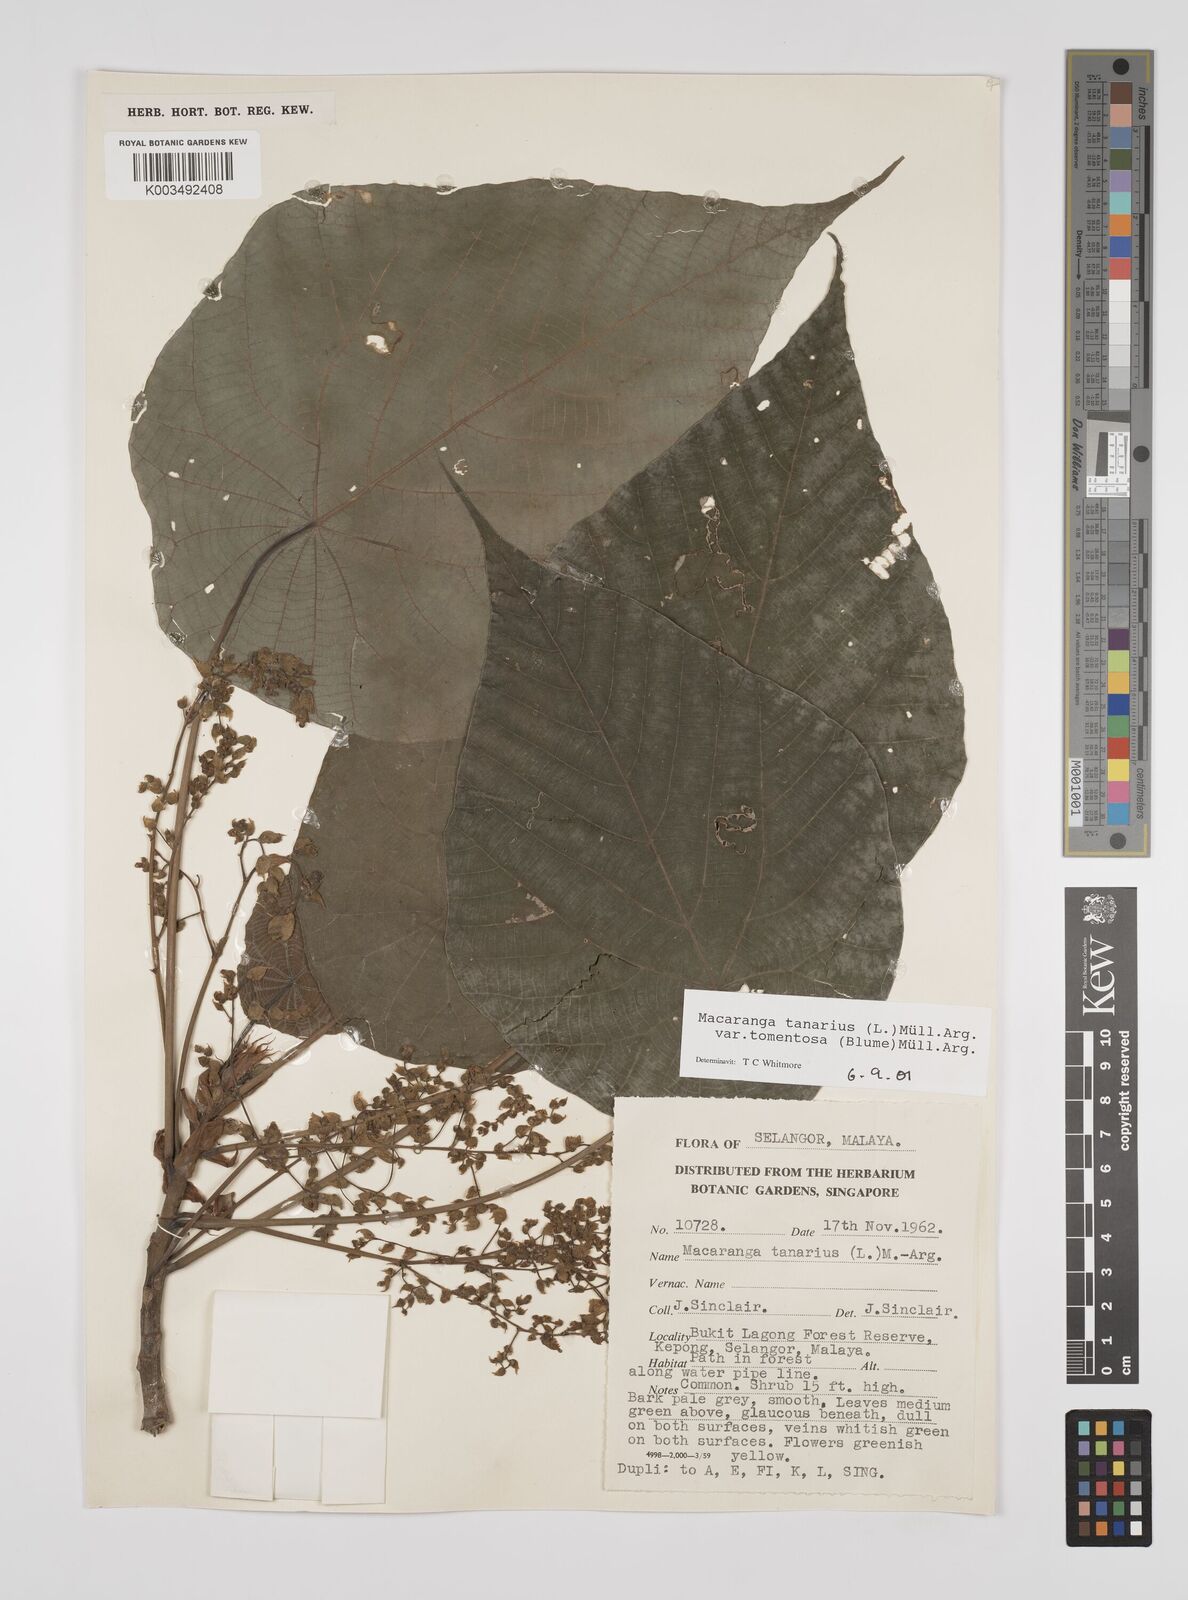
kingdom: Plantae
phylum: Tracheophyta
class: Magnoliopsida
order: Malpighiales
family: Euphorbiaceae
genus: Macaranga
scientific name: Macaranga tanarius
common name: Parasol leaf tree
